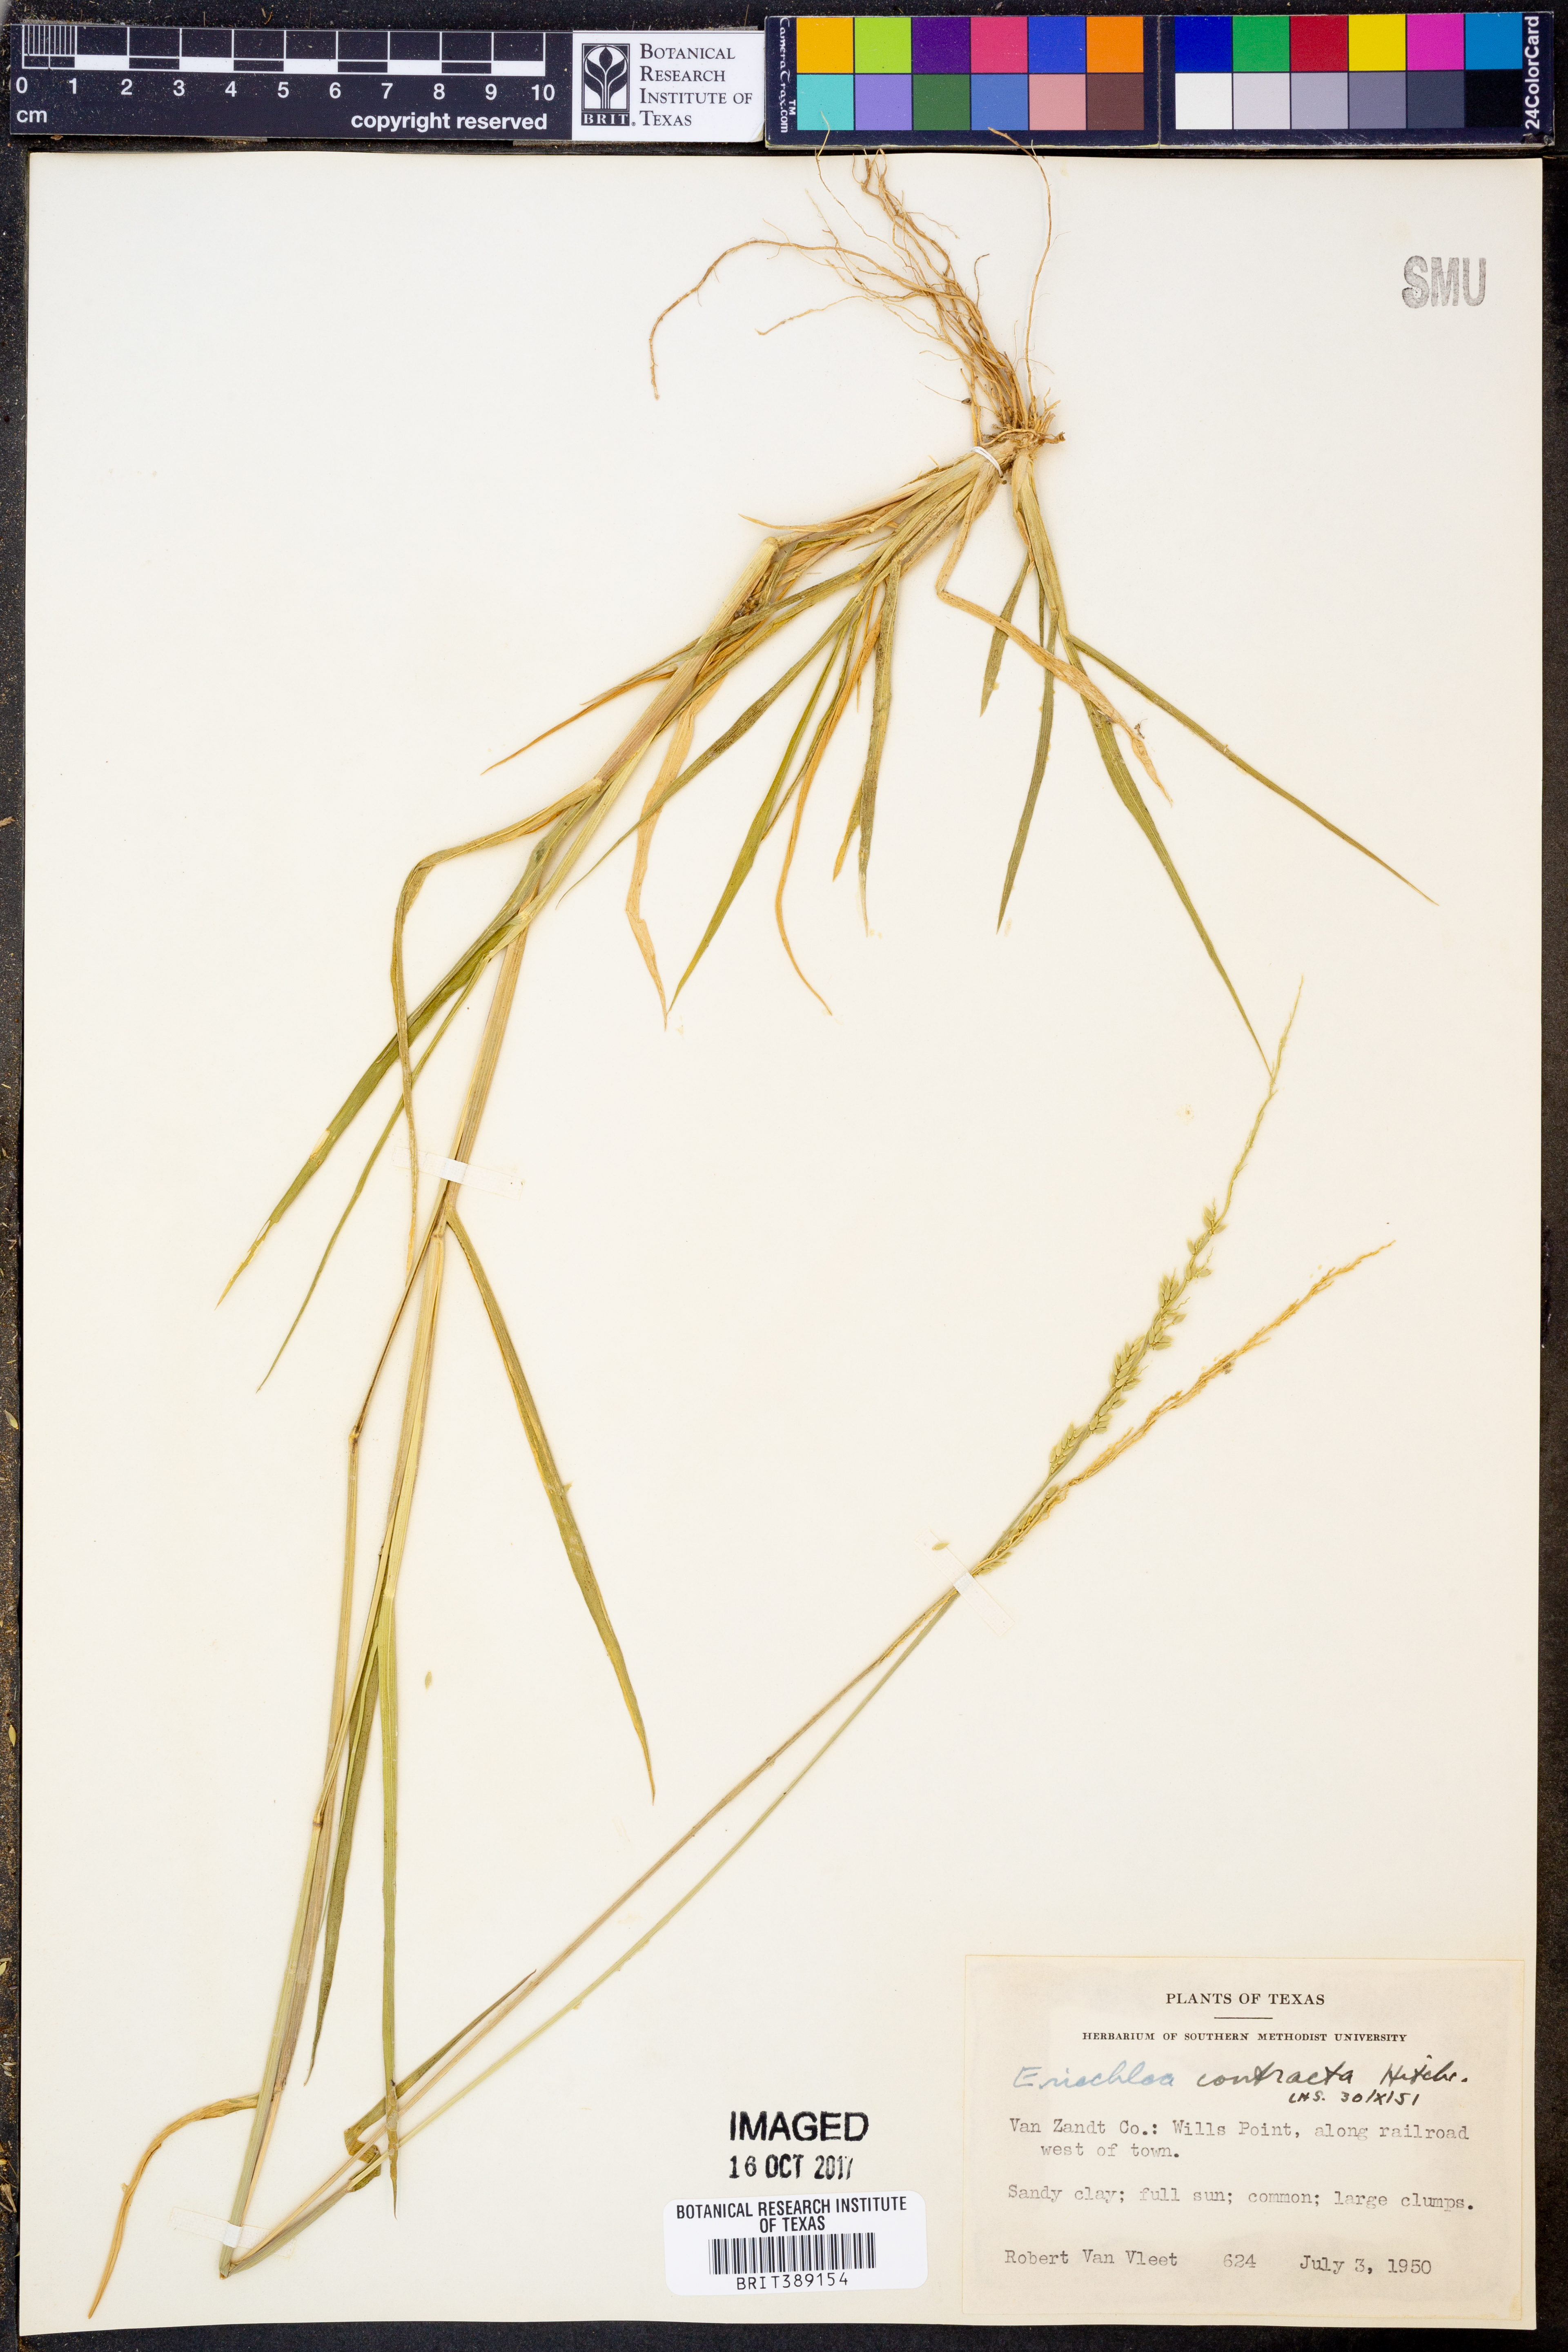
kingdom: Plantae
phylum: Tracheophyta
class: Liliopsida
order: Poales
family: Poaceae
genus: Eriochloa
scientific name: Eriochloa contracta
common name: Prairie cup grass
